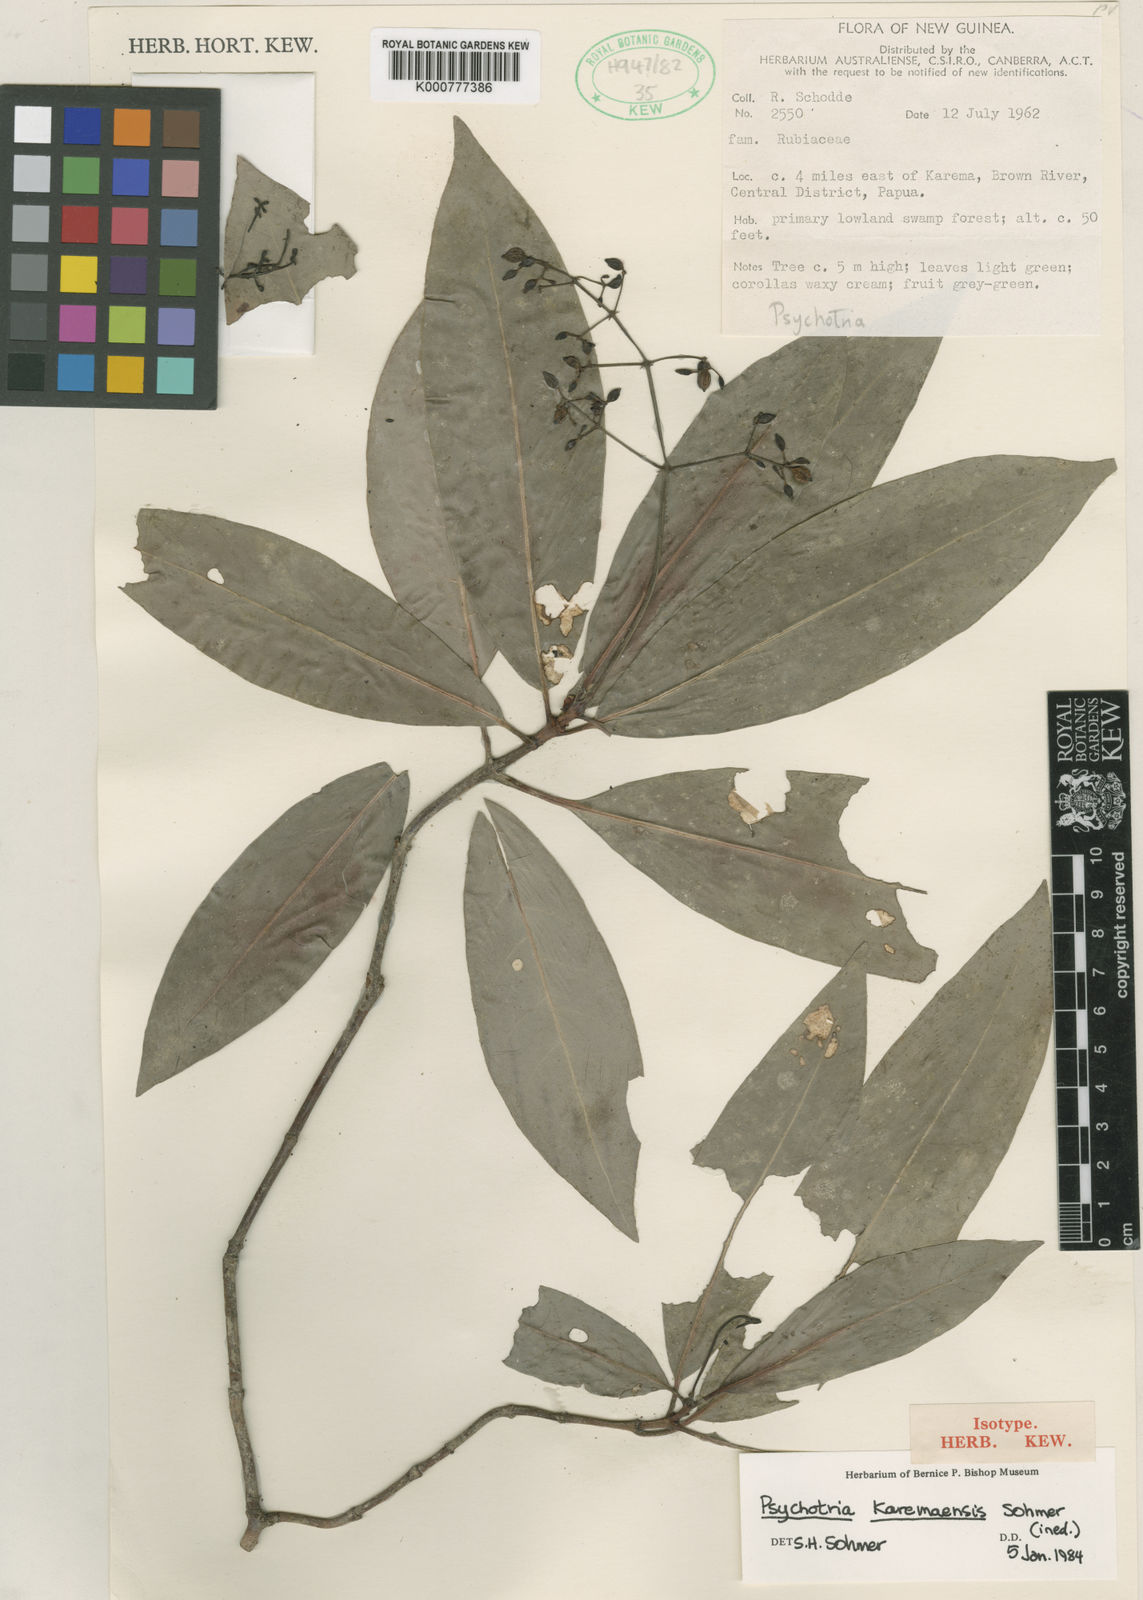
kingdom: Plantae
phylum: Tracheophyta
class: Magnoliopsida
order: Gentianales
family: Rubiaceae
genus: Psychotria
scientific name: Psychotria karemaensis
